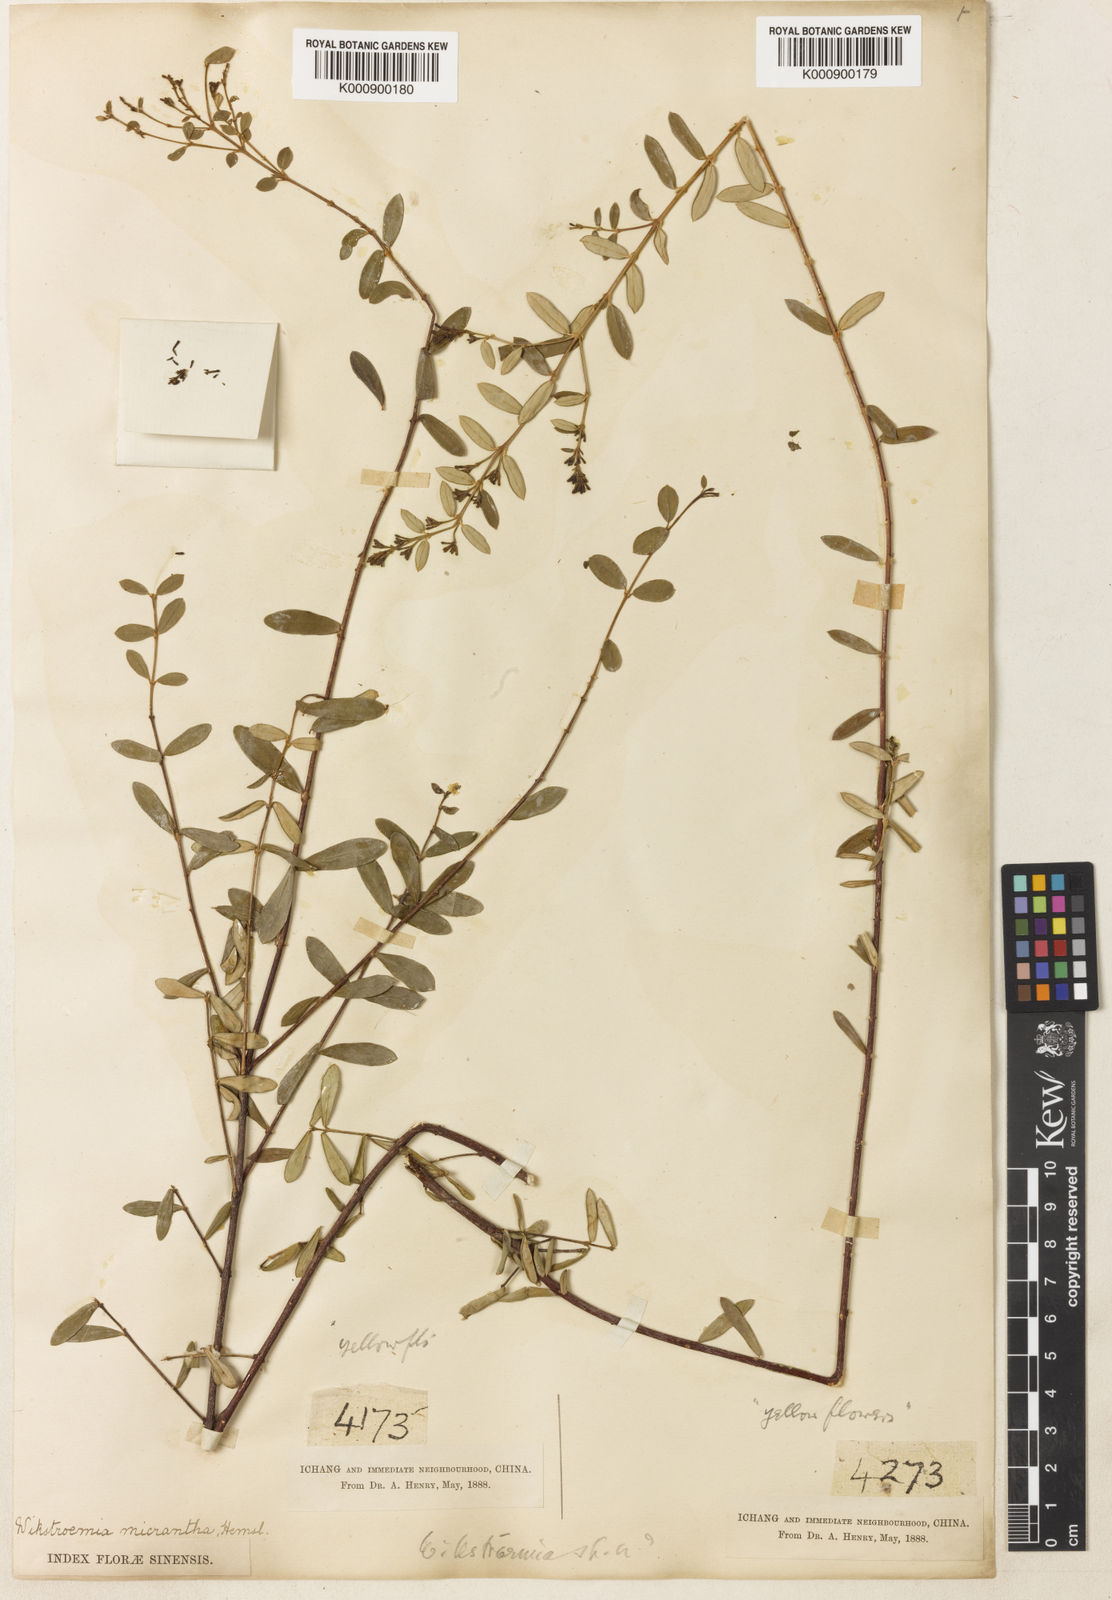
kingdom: Plantae
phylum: Tracheophyta
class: Magnoliopsida
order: Malvales
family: Thymelaeaceae
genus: Wikstroemia
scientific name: Wikstroemia micrantha
